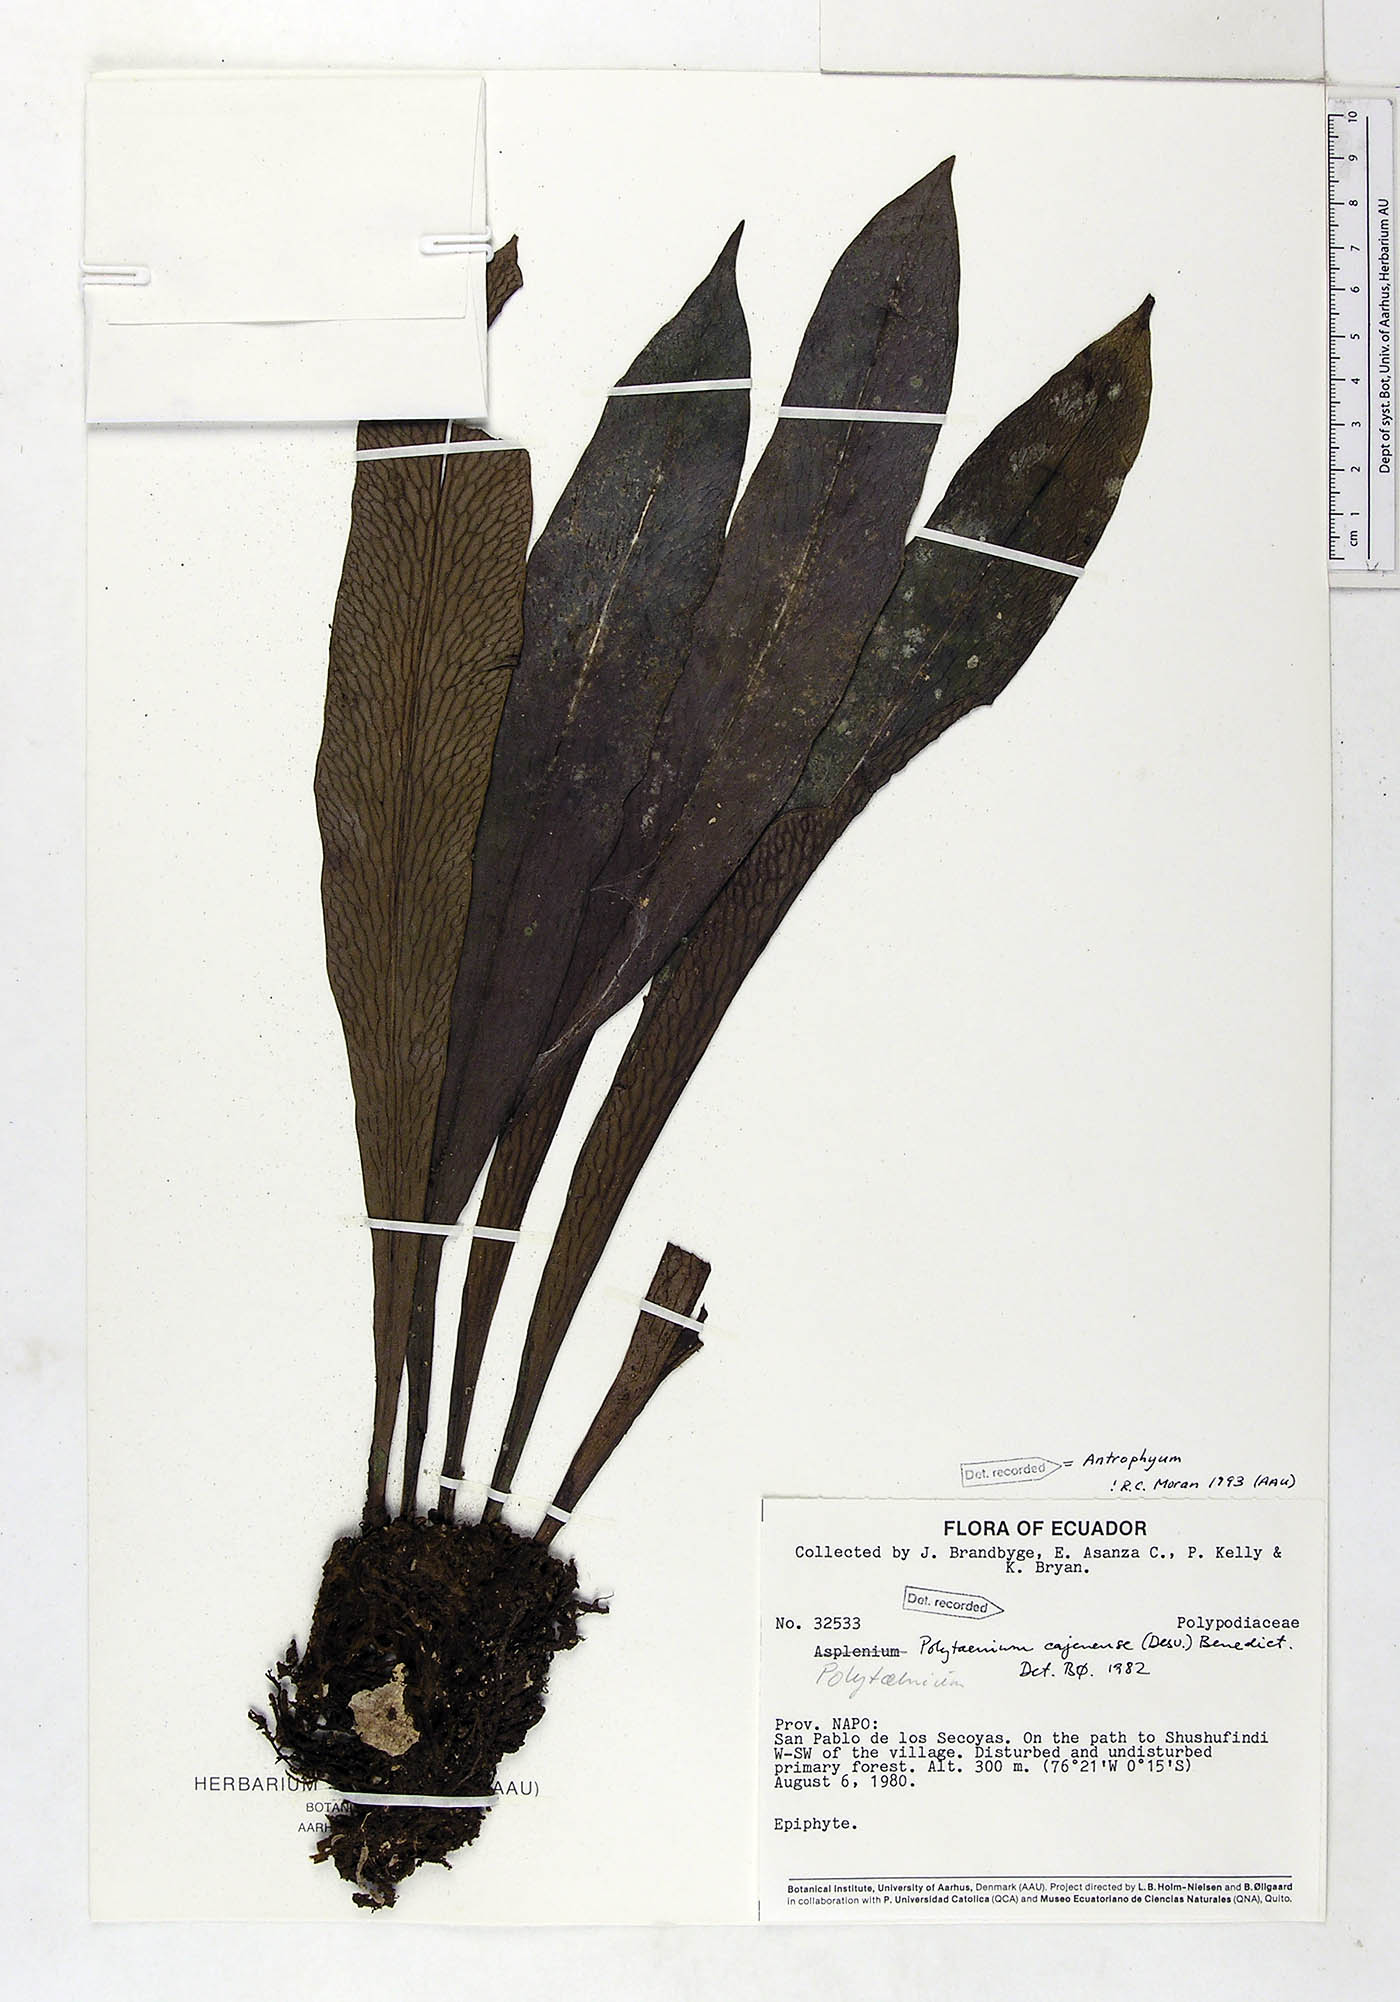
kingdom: Plantae
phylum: Tracheophyta
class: Polypodiopsida
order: Polypodiales
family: Pteridaceae
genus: Polytaenium
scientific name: Polytaenium cajenense
